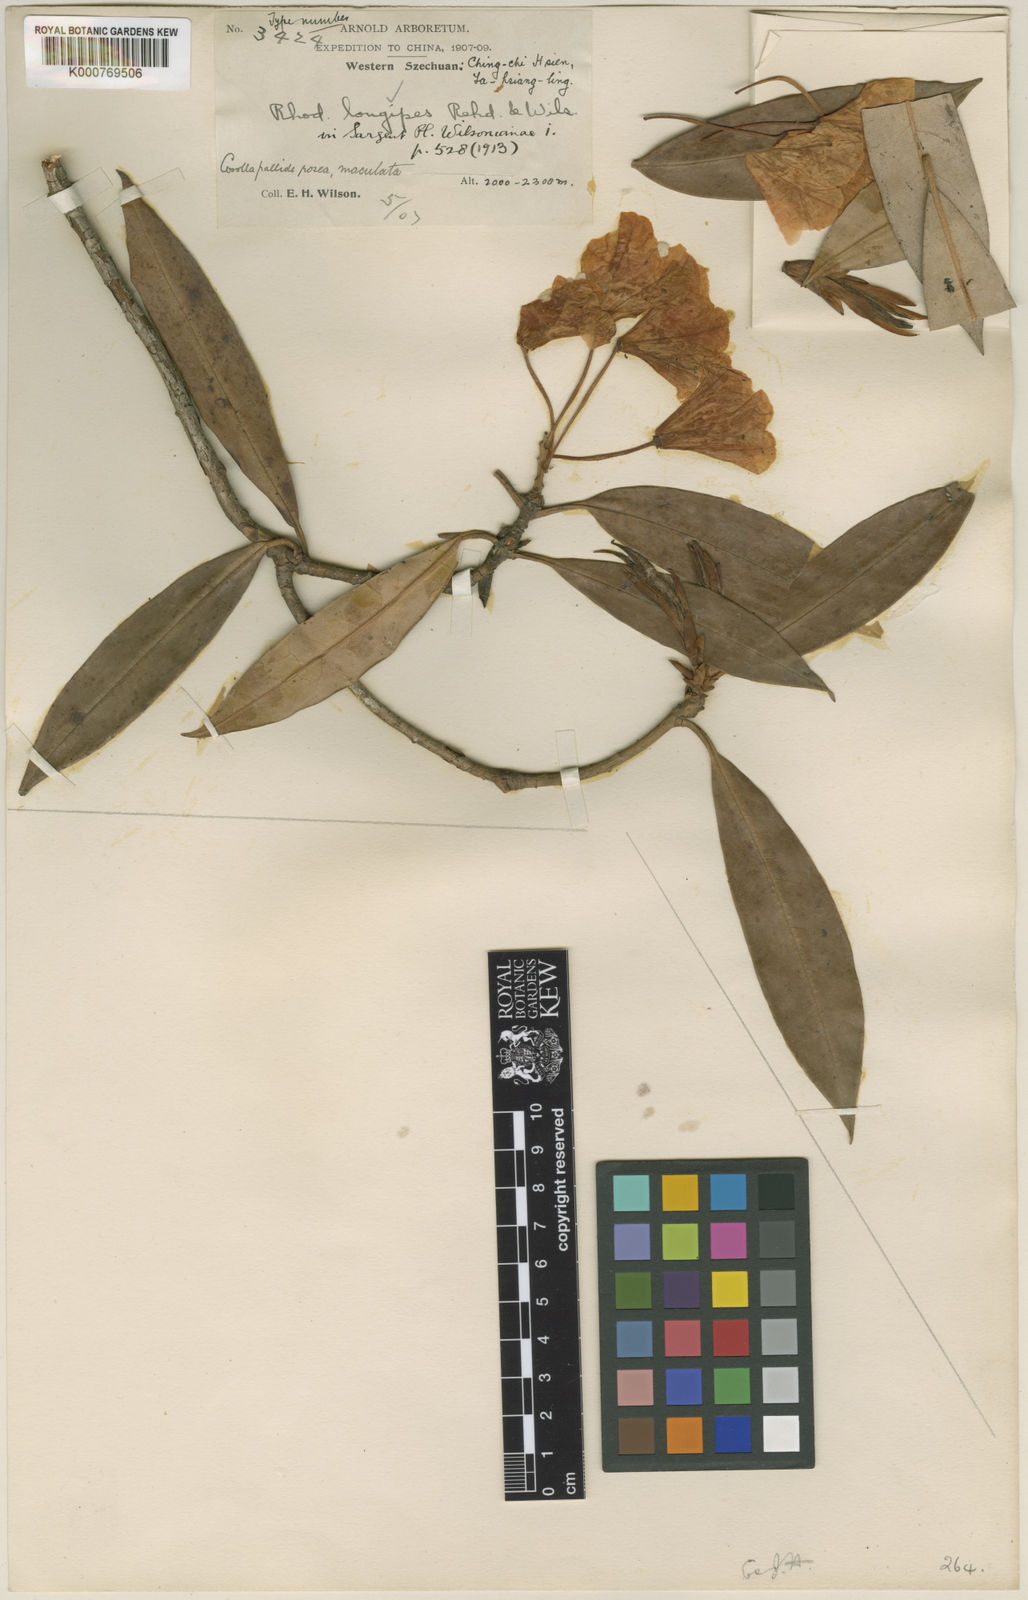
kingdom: Plantae
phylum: Tracheophyta
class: Magnoliopsida
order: Ericales
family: Ericaceae
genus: Rhododendron
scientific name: Rhododendron longipes
